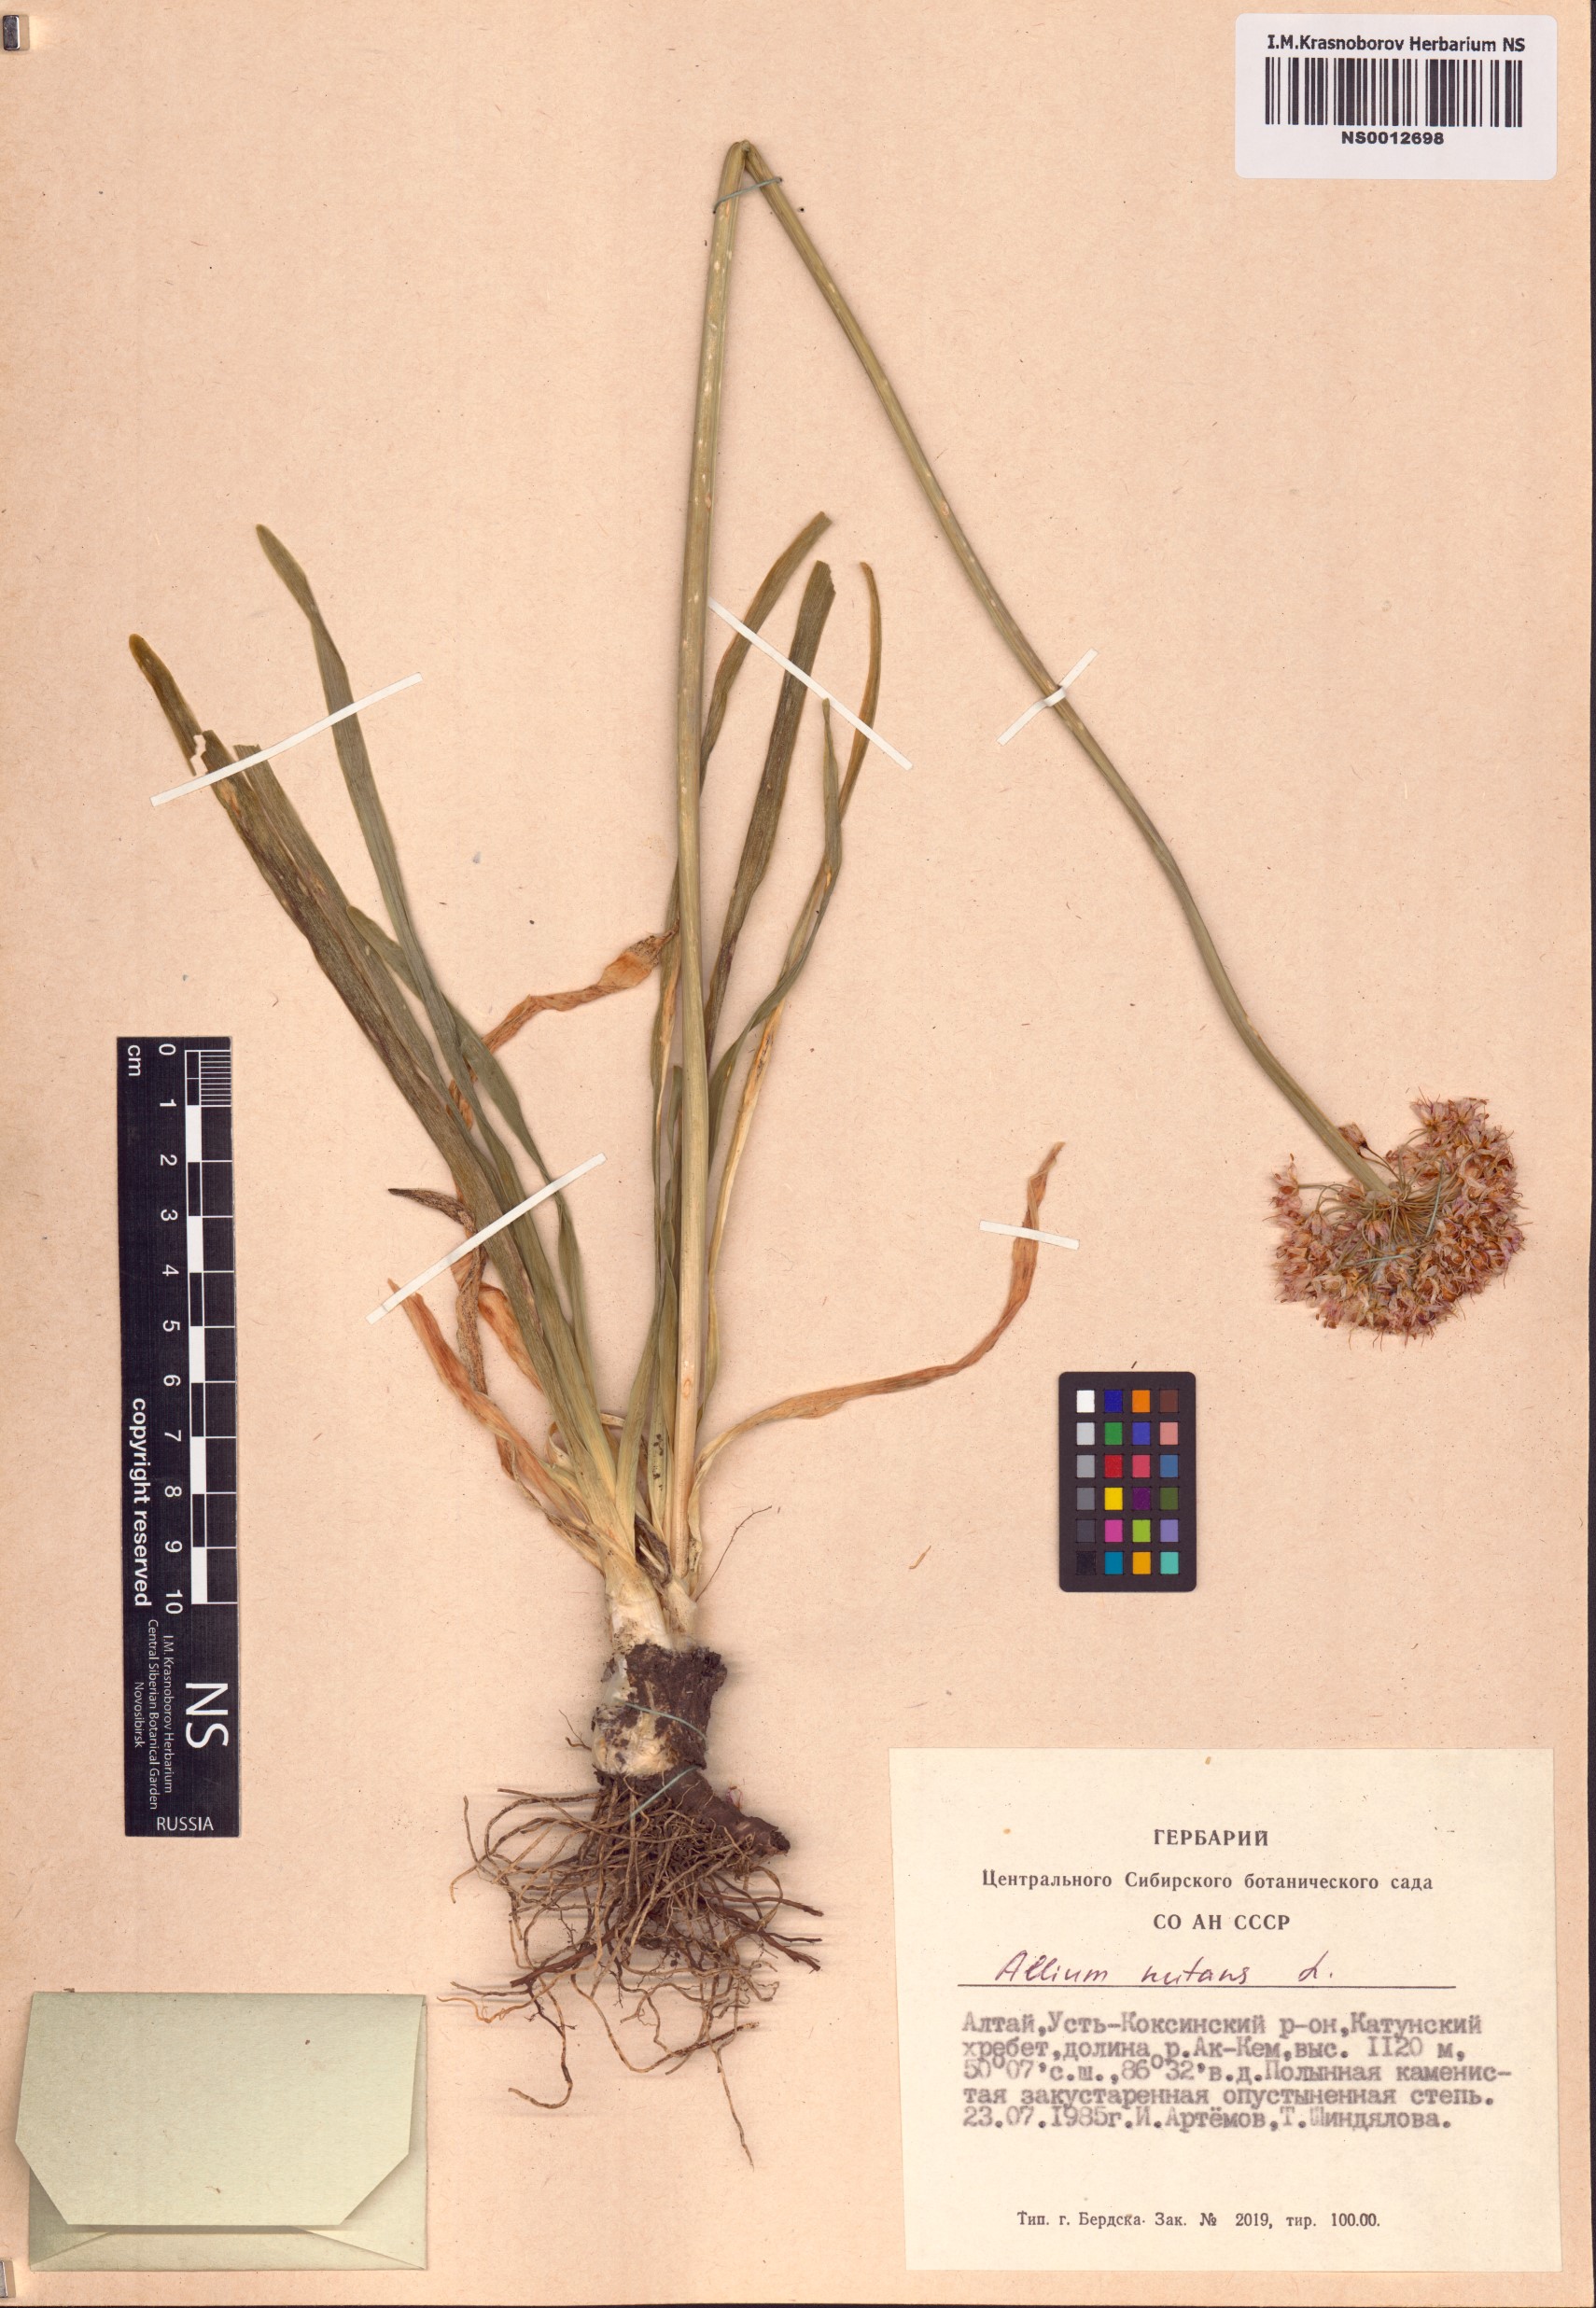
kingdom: Plantae
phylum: Tracheophyta
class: Liliopsida
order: Asparagales
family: Amaryllidaceae
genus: Allium
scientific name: Allium nutans
